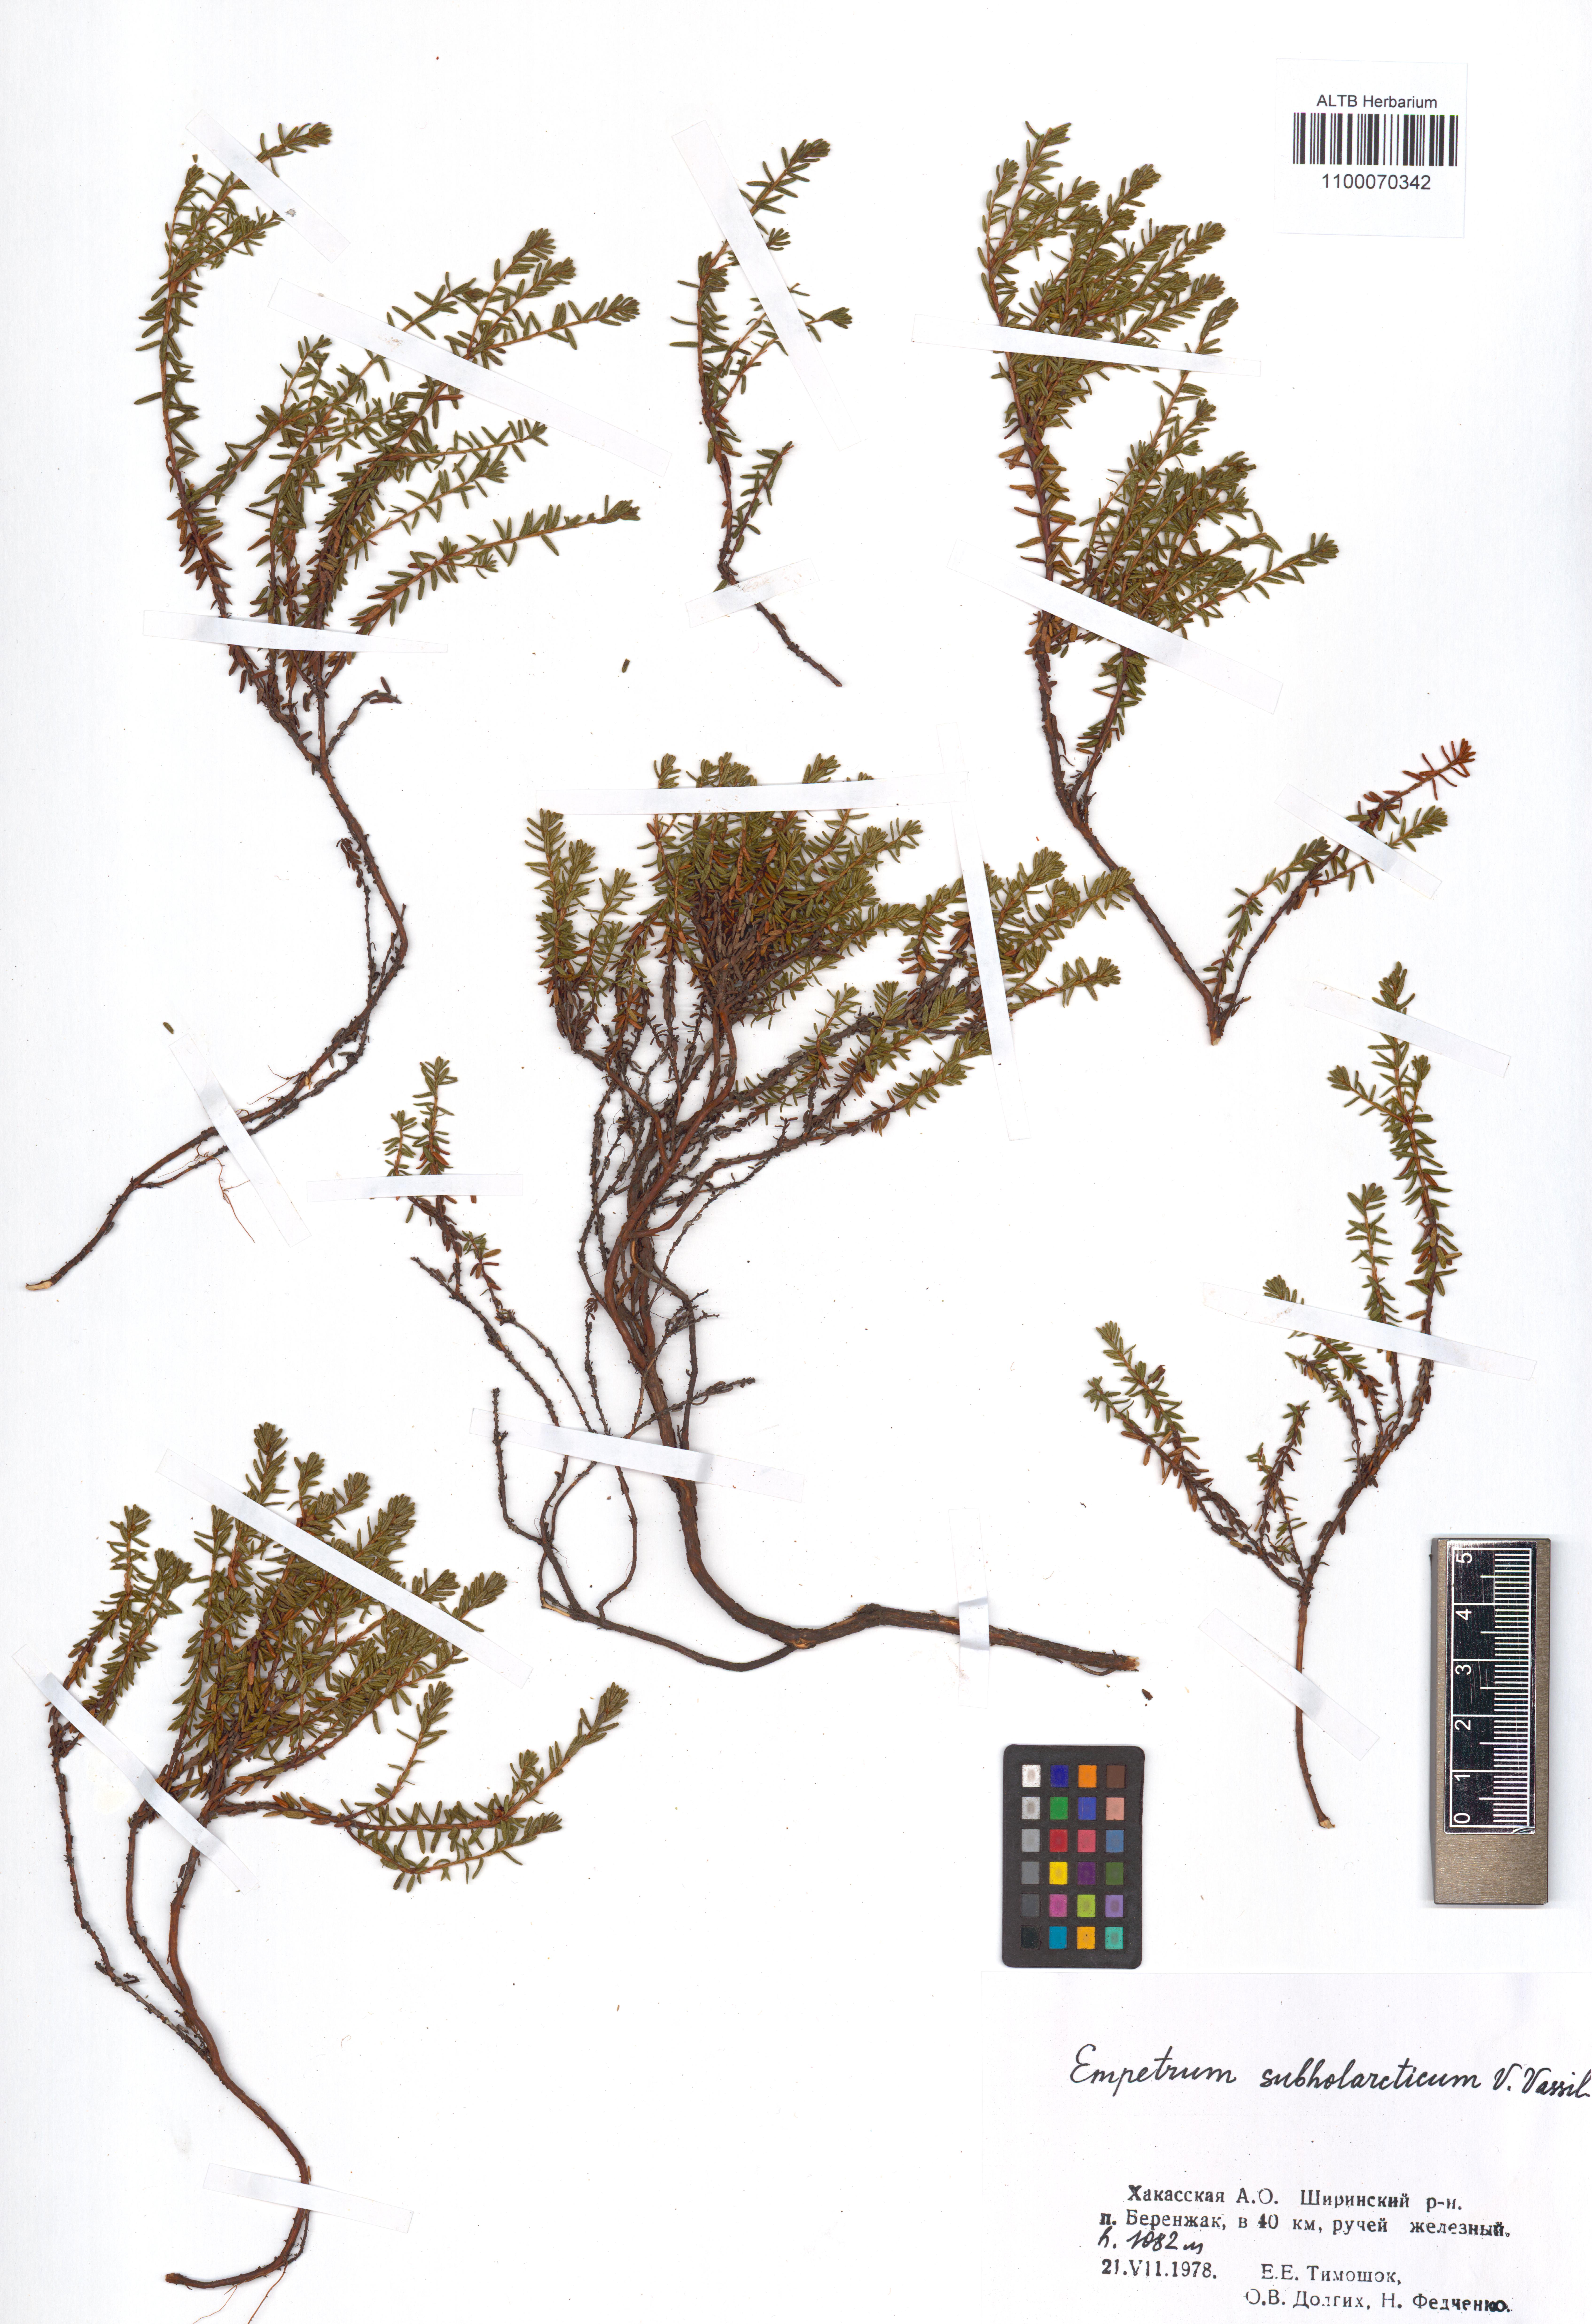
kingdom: Plantae
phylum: Tracheophyta
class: Magnoliopsida
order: Ericales
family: Ericaceae
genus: Empetrum
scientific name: Empetrum nigrum
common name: Black crowberry
